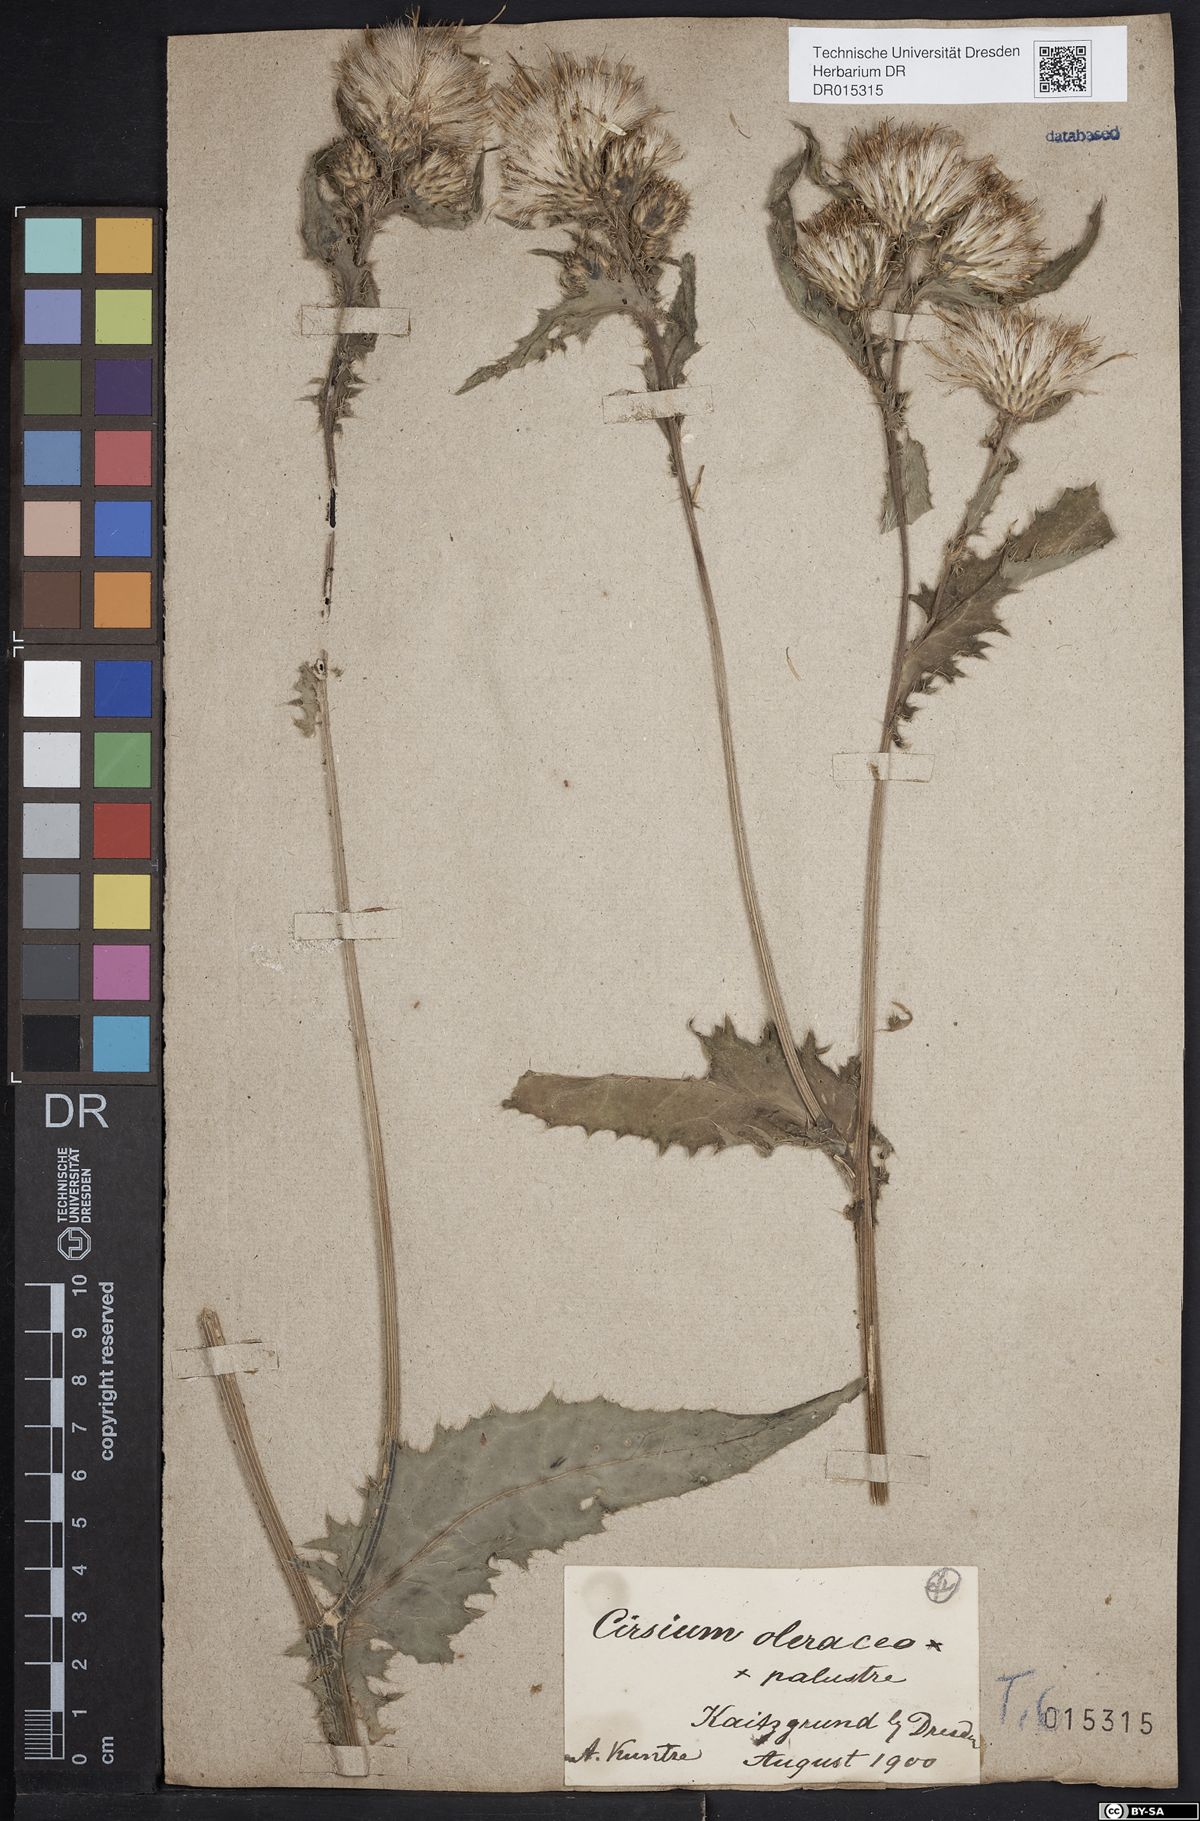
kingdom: Plantae
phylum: Tracheophyta
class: Magnoliopsida
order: Asterales
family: Asteraceae
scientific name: Asteraceae
